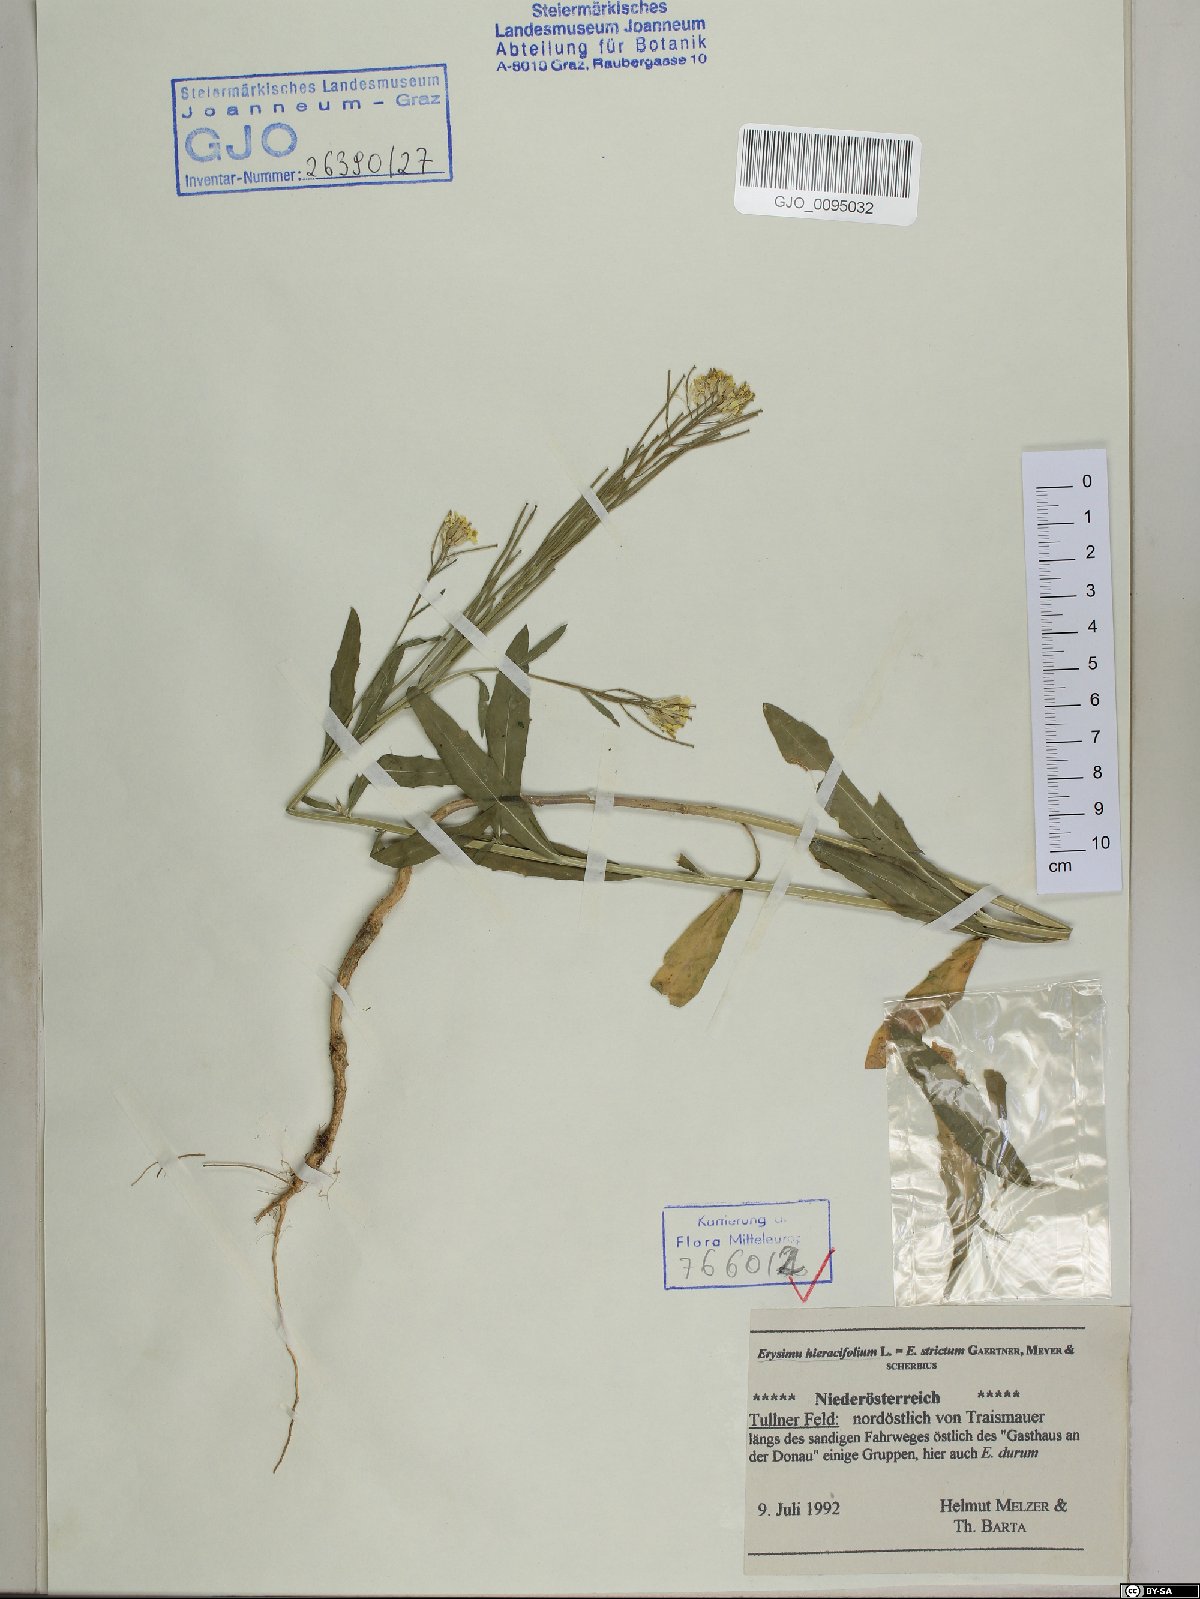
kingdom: Plantae
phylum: Tracheophyta
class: Magnoliopsida
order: Brassicales
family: Brassicaceae
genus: Erysimum
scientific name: Erysimum hieraciifolium
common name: European wallflower
